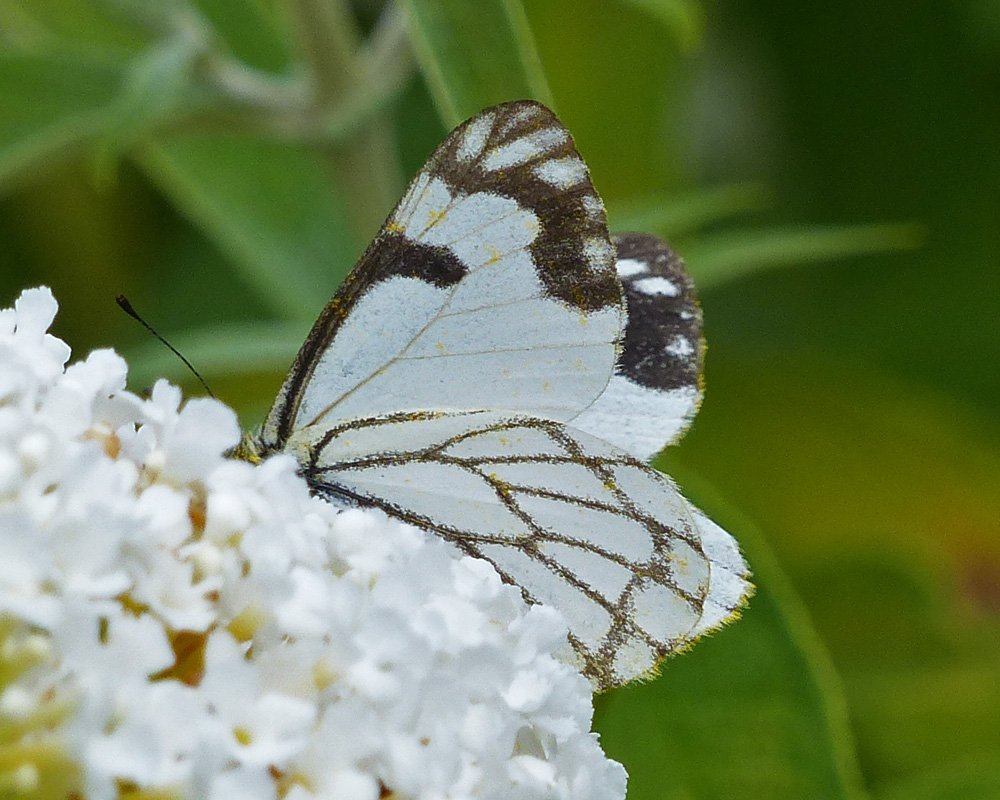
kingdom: Animalia
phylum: Arthropoda
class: Insecta
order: Lepidoptera
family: Pieridae
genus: Neophasia
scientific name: Neophasia menapia
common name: Pine White
